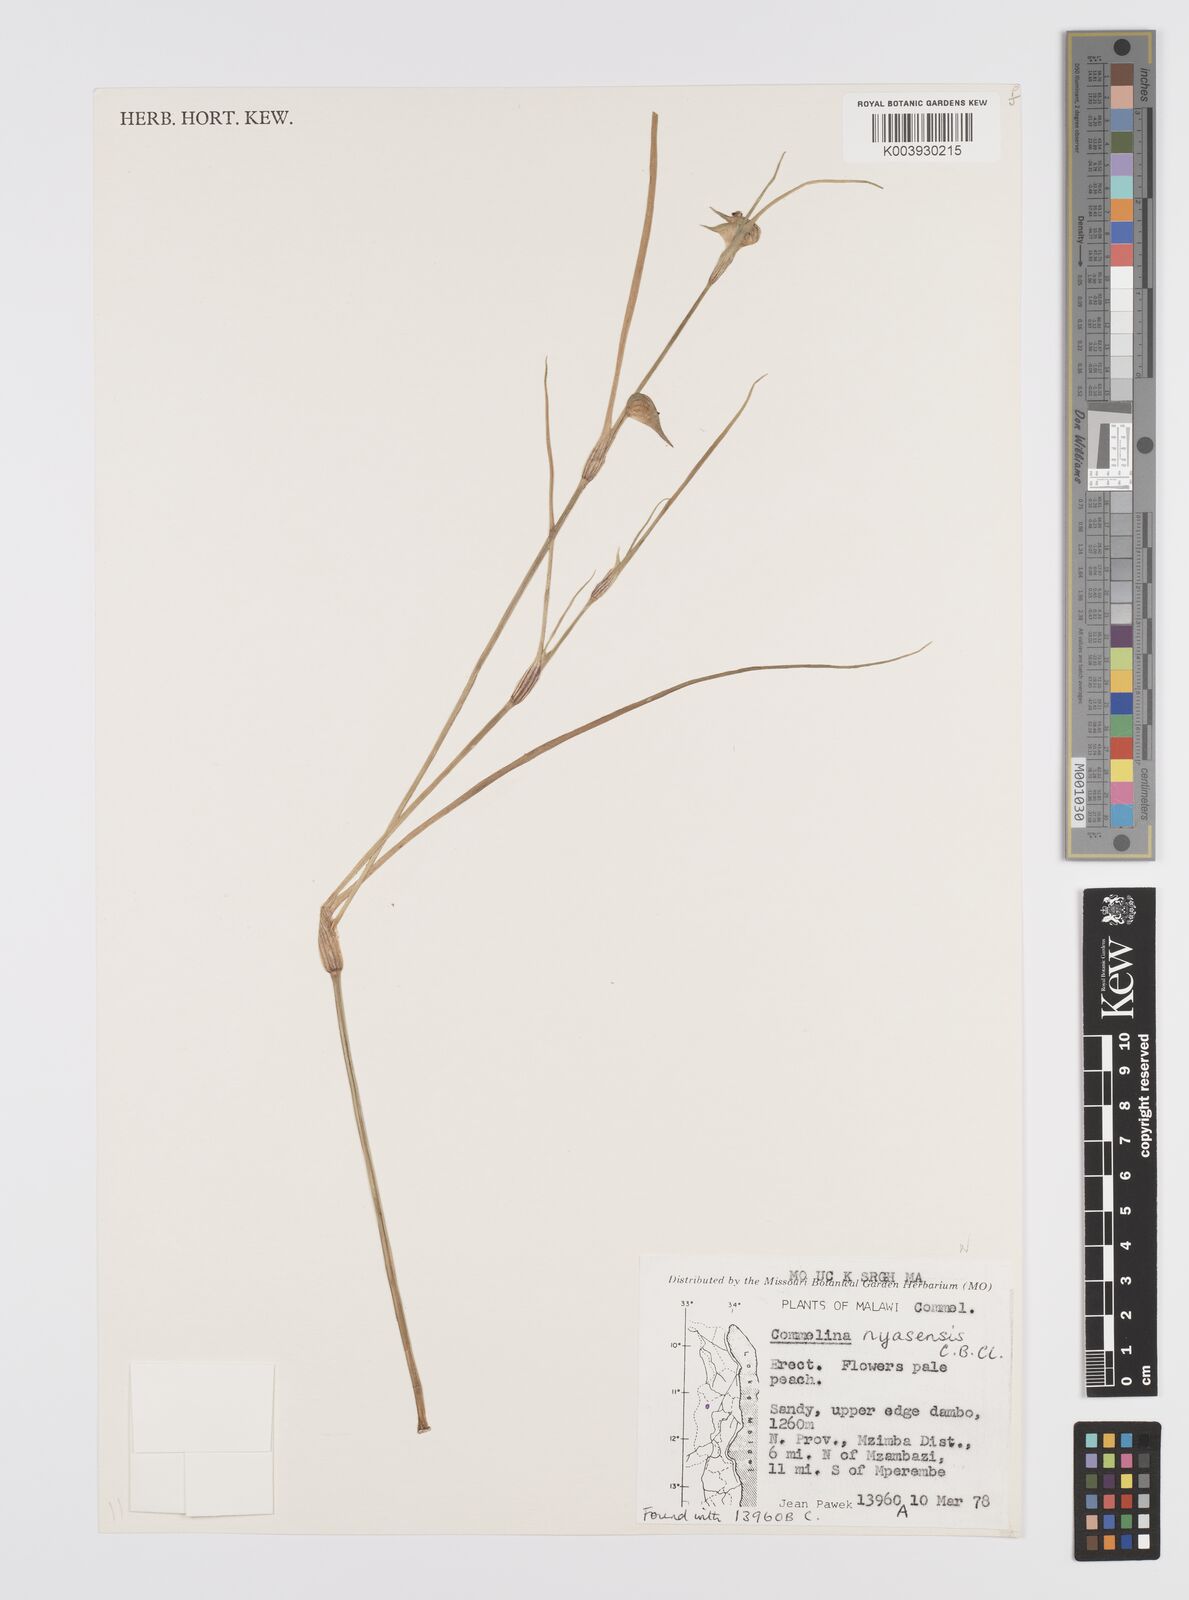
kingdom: Plantae
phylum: Tracheophyta
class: Liliopsida
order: Commelinales
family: Commelinaceae
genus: Commelina
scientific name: Commelina nyasensis
